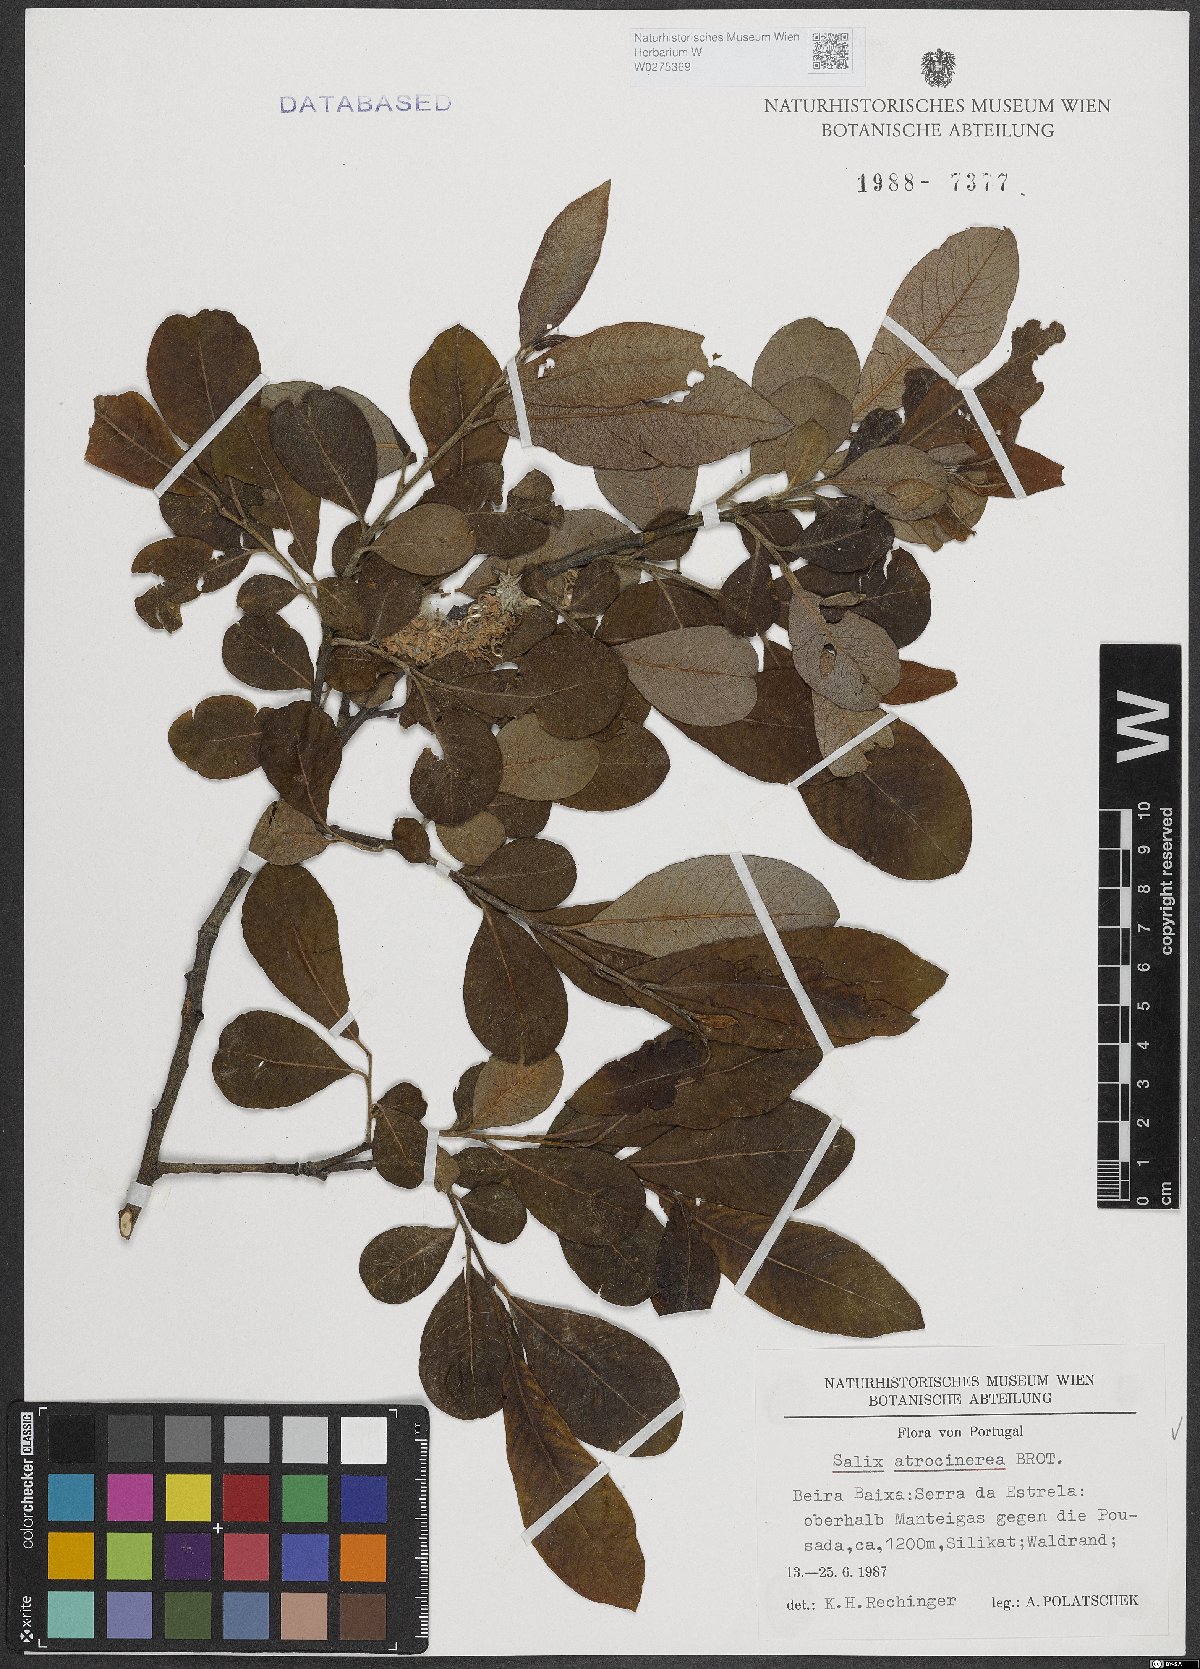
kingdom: Plantae
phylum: Tracheophyta
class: Magnoliopsida
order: Malpighiales
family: Salicaceae
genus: Salix
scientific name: Salix atrocinerea
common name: Rusty willow
